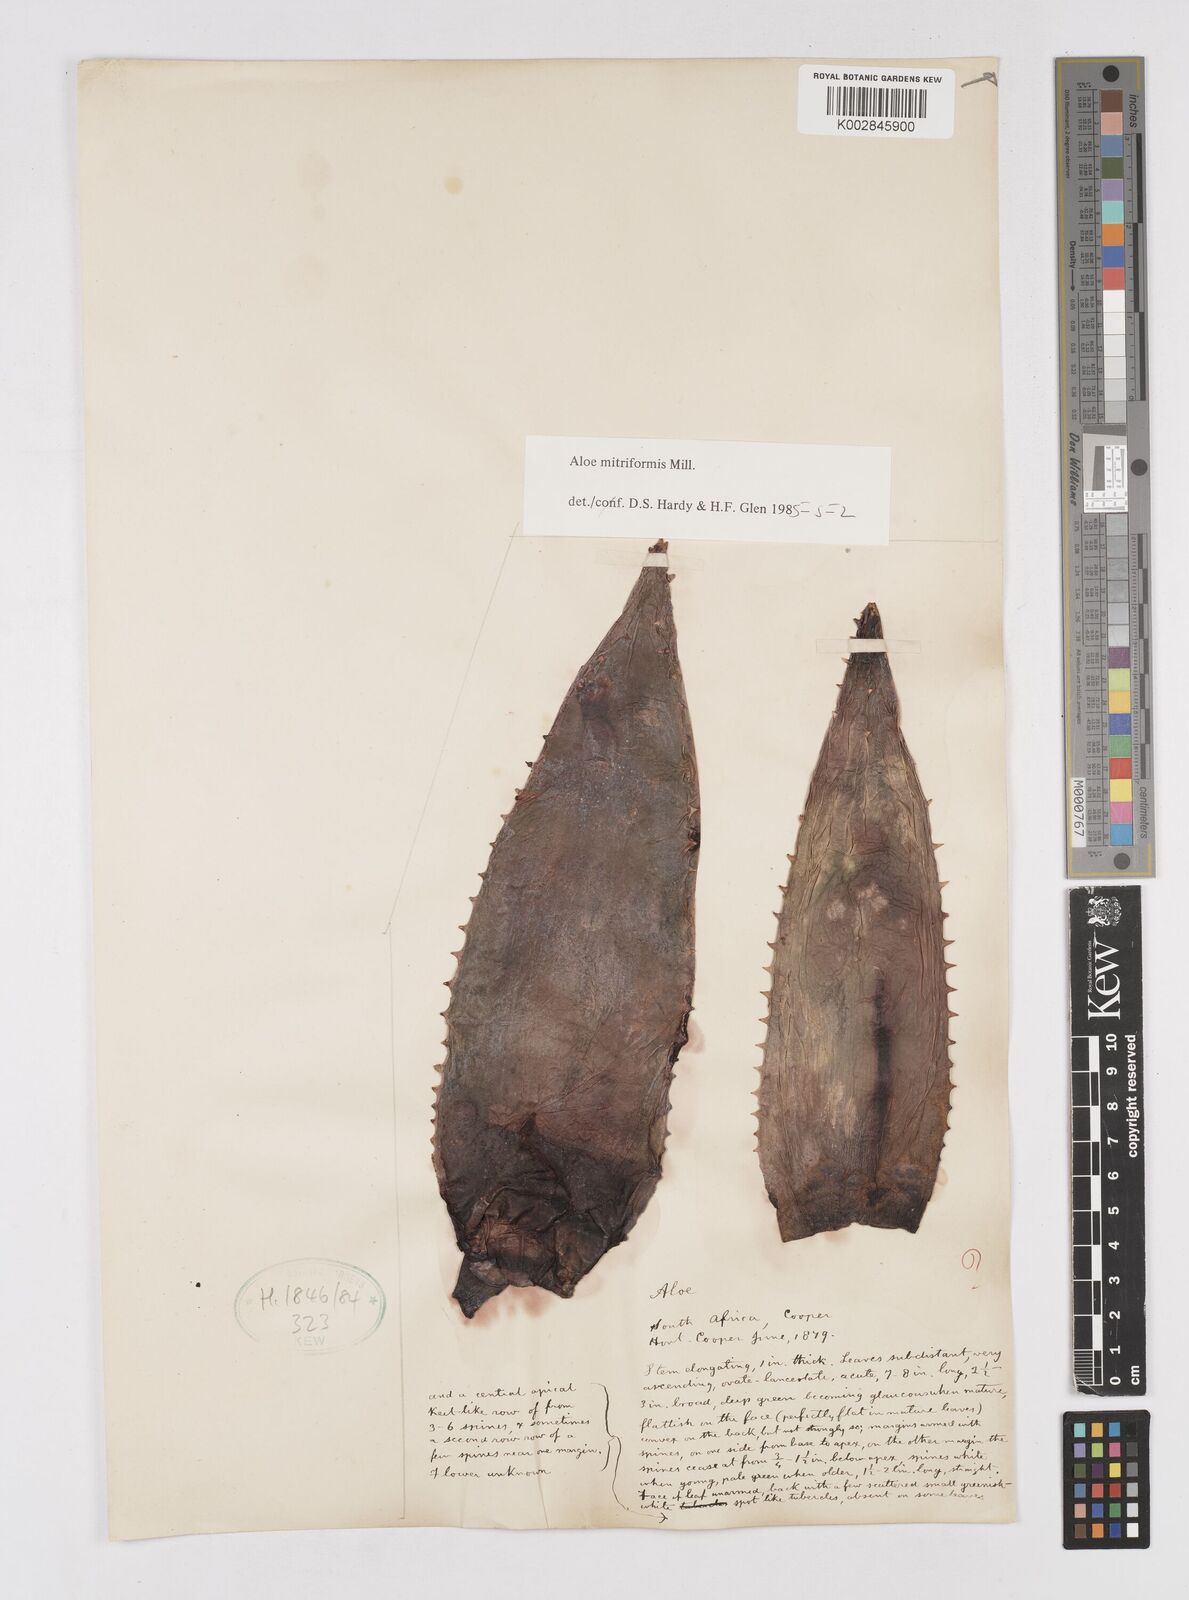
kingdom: Plantae
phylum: Tracheophyta
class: Liliopsida
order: Asparagales
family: Asphodelaceae
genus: Aloe
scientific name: Aloe perfoliata
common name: Mitra aloe
